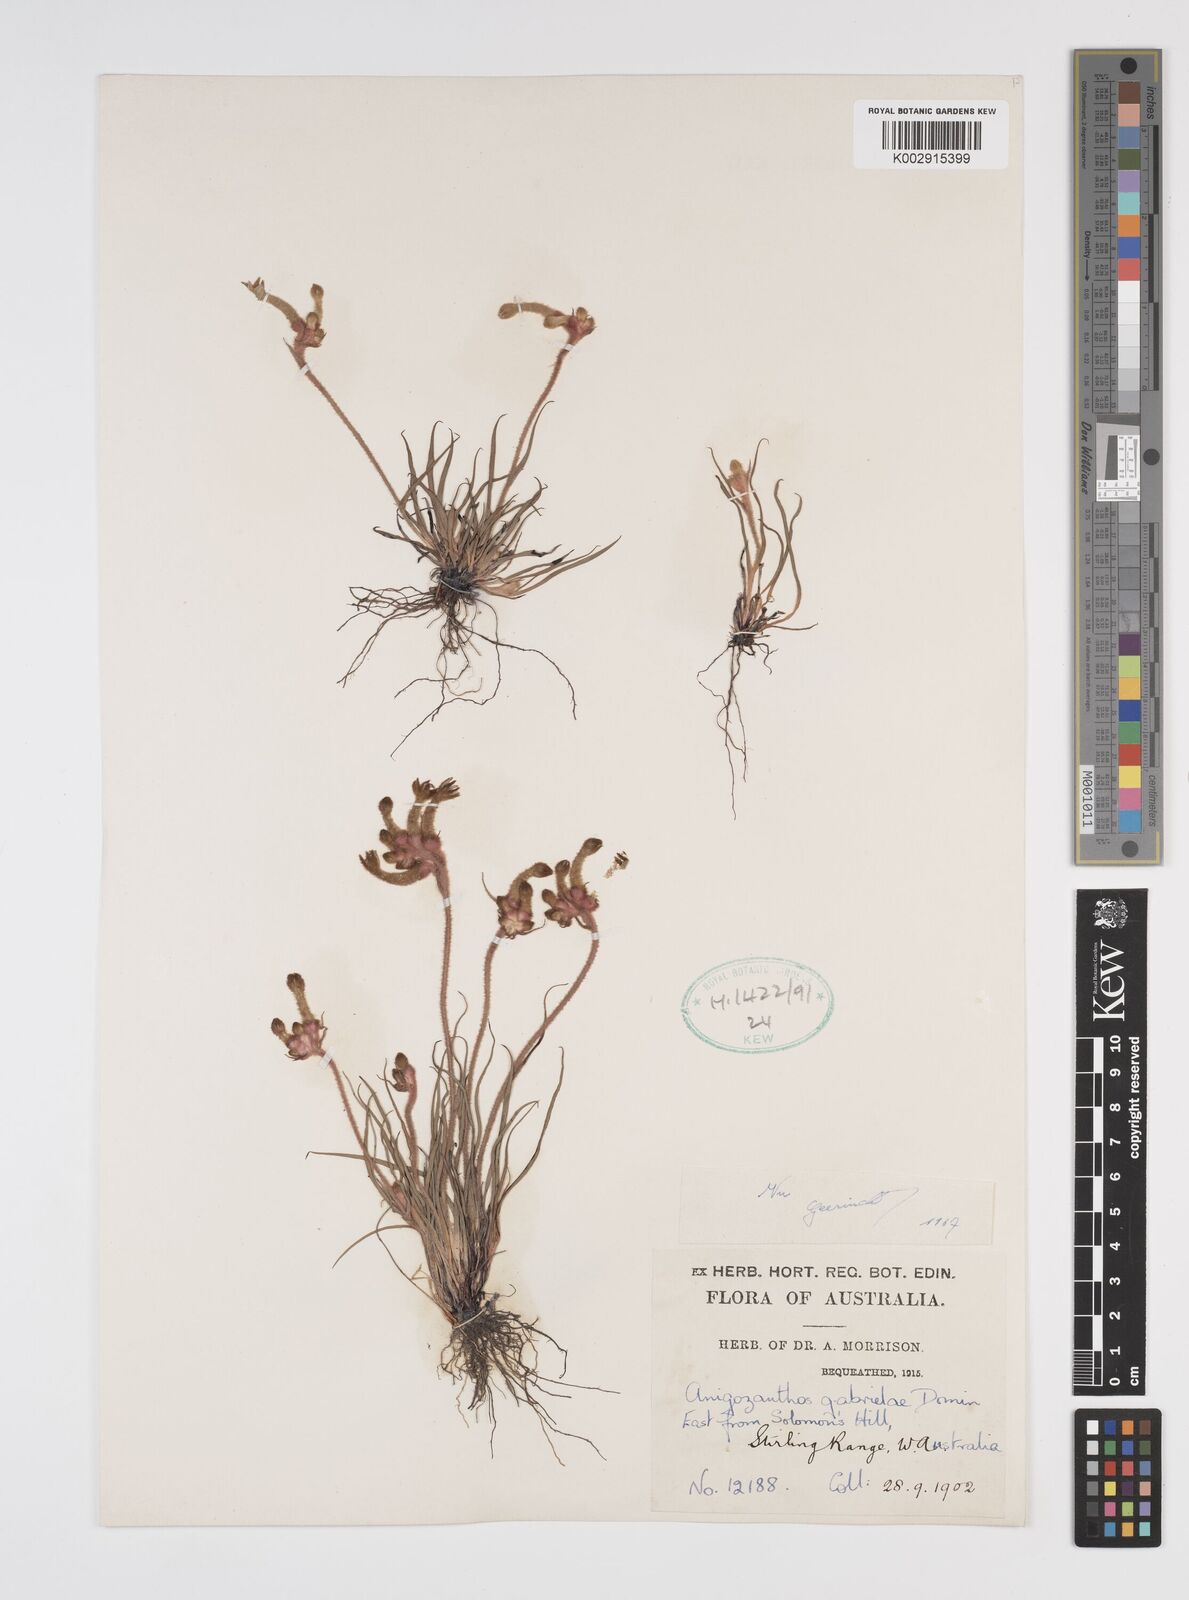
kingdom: Plantae
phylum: Tracheophyta
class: Liliopsida
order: Commelinales
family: Haemodoraceae
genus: Anigozanthos
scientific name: Anigozanthos gabrielae
